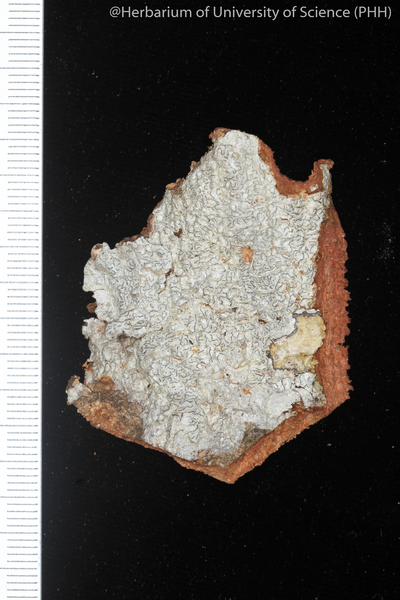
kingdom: Fungi
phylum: Ascomycota
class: Lecanoromycetes
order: Ostropales
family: Graphidaceae
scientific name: Graphidaceae
